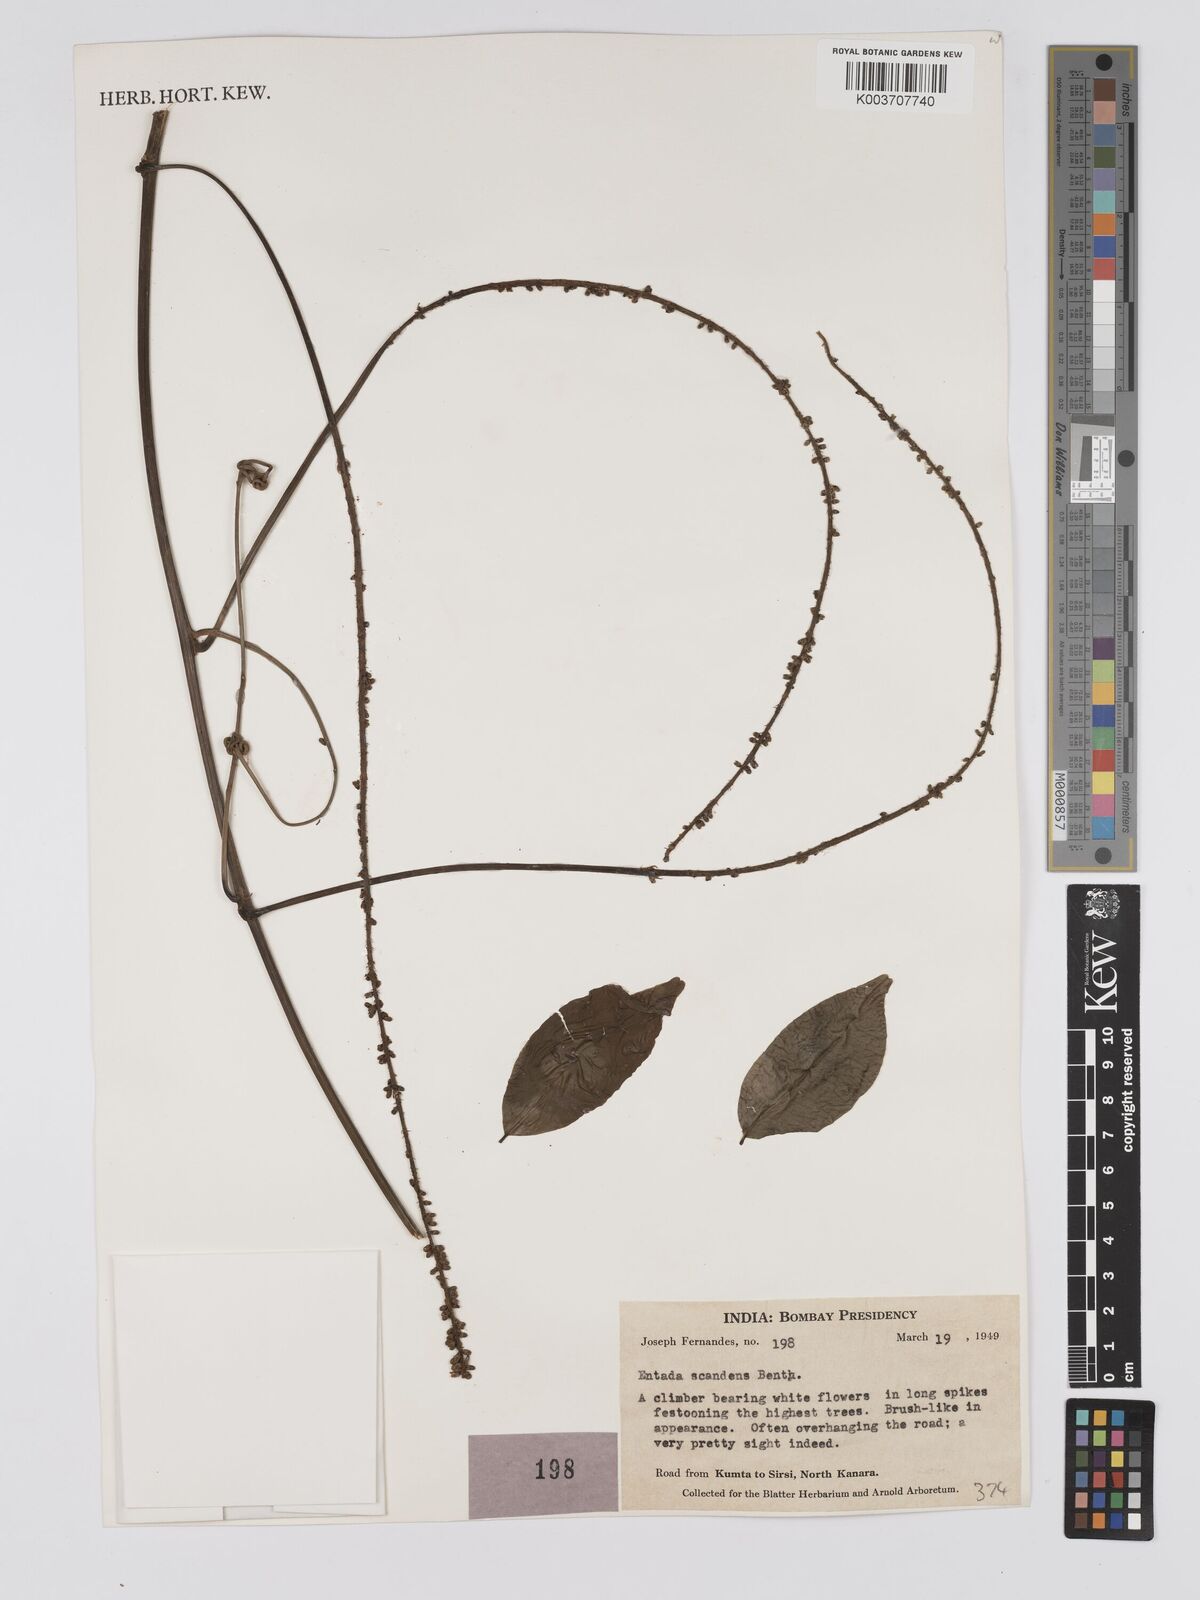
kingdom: Plantae
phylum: Tracheophyta
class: Magnoliopsida
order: Fabales
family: Fabaceae
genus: Entada
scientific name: Entada phaseoloides
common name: Matchbox-bean
